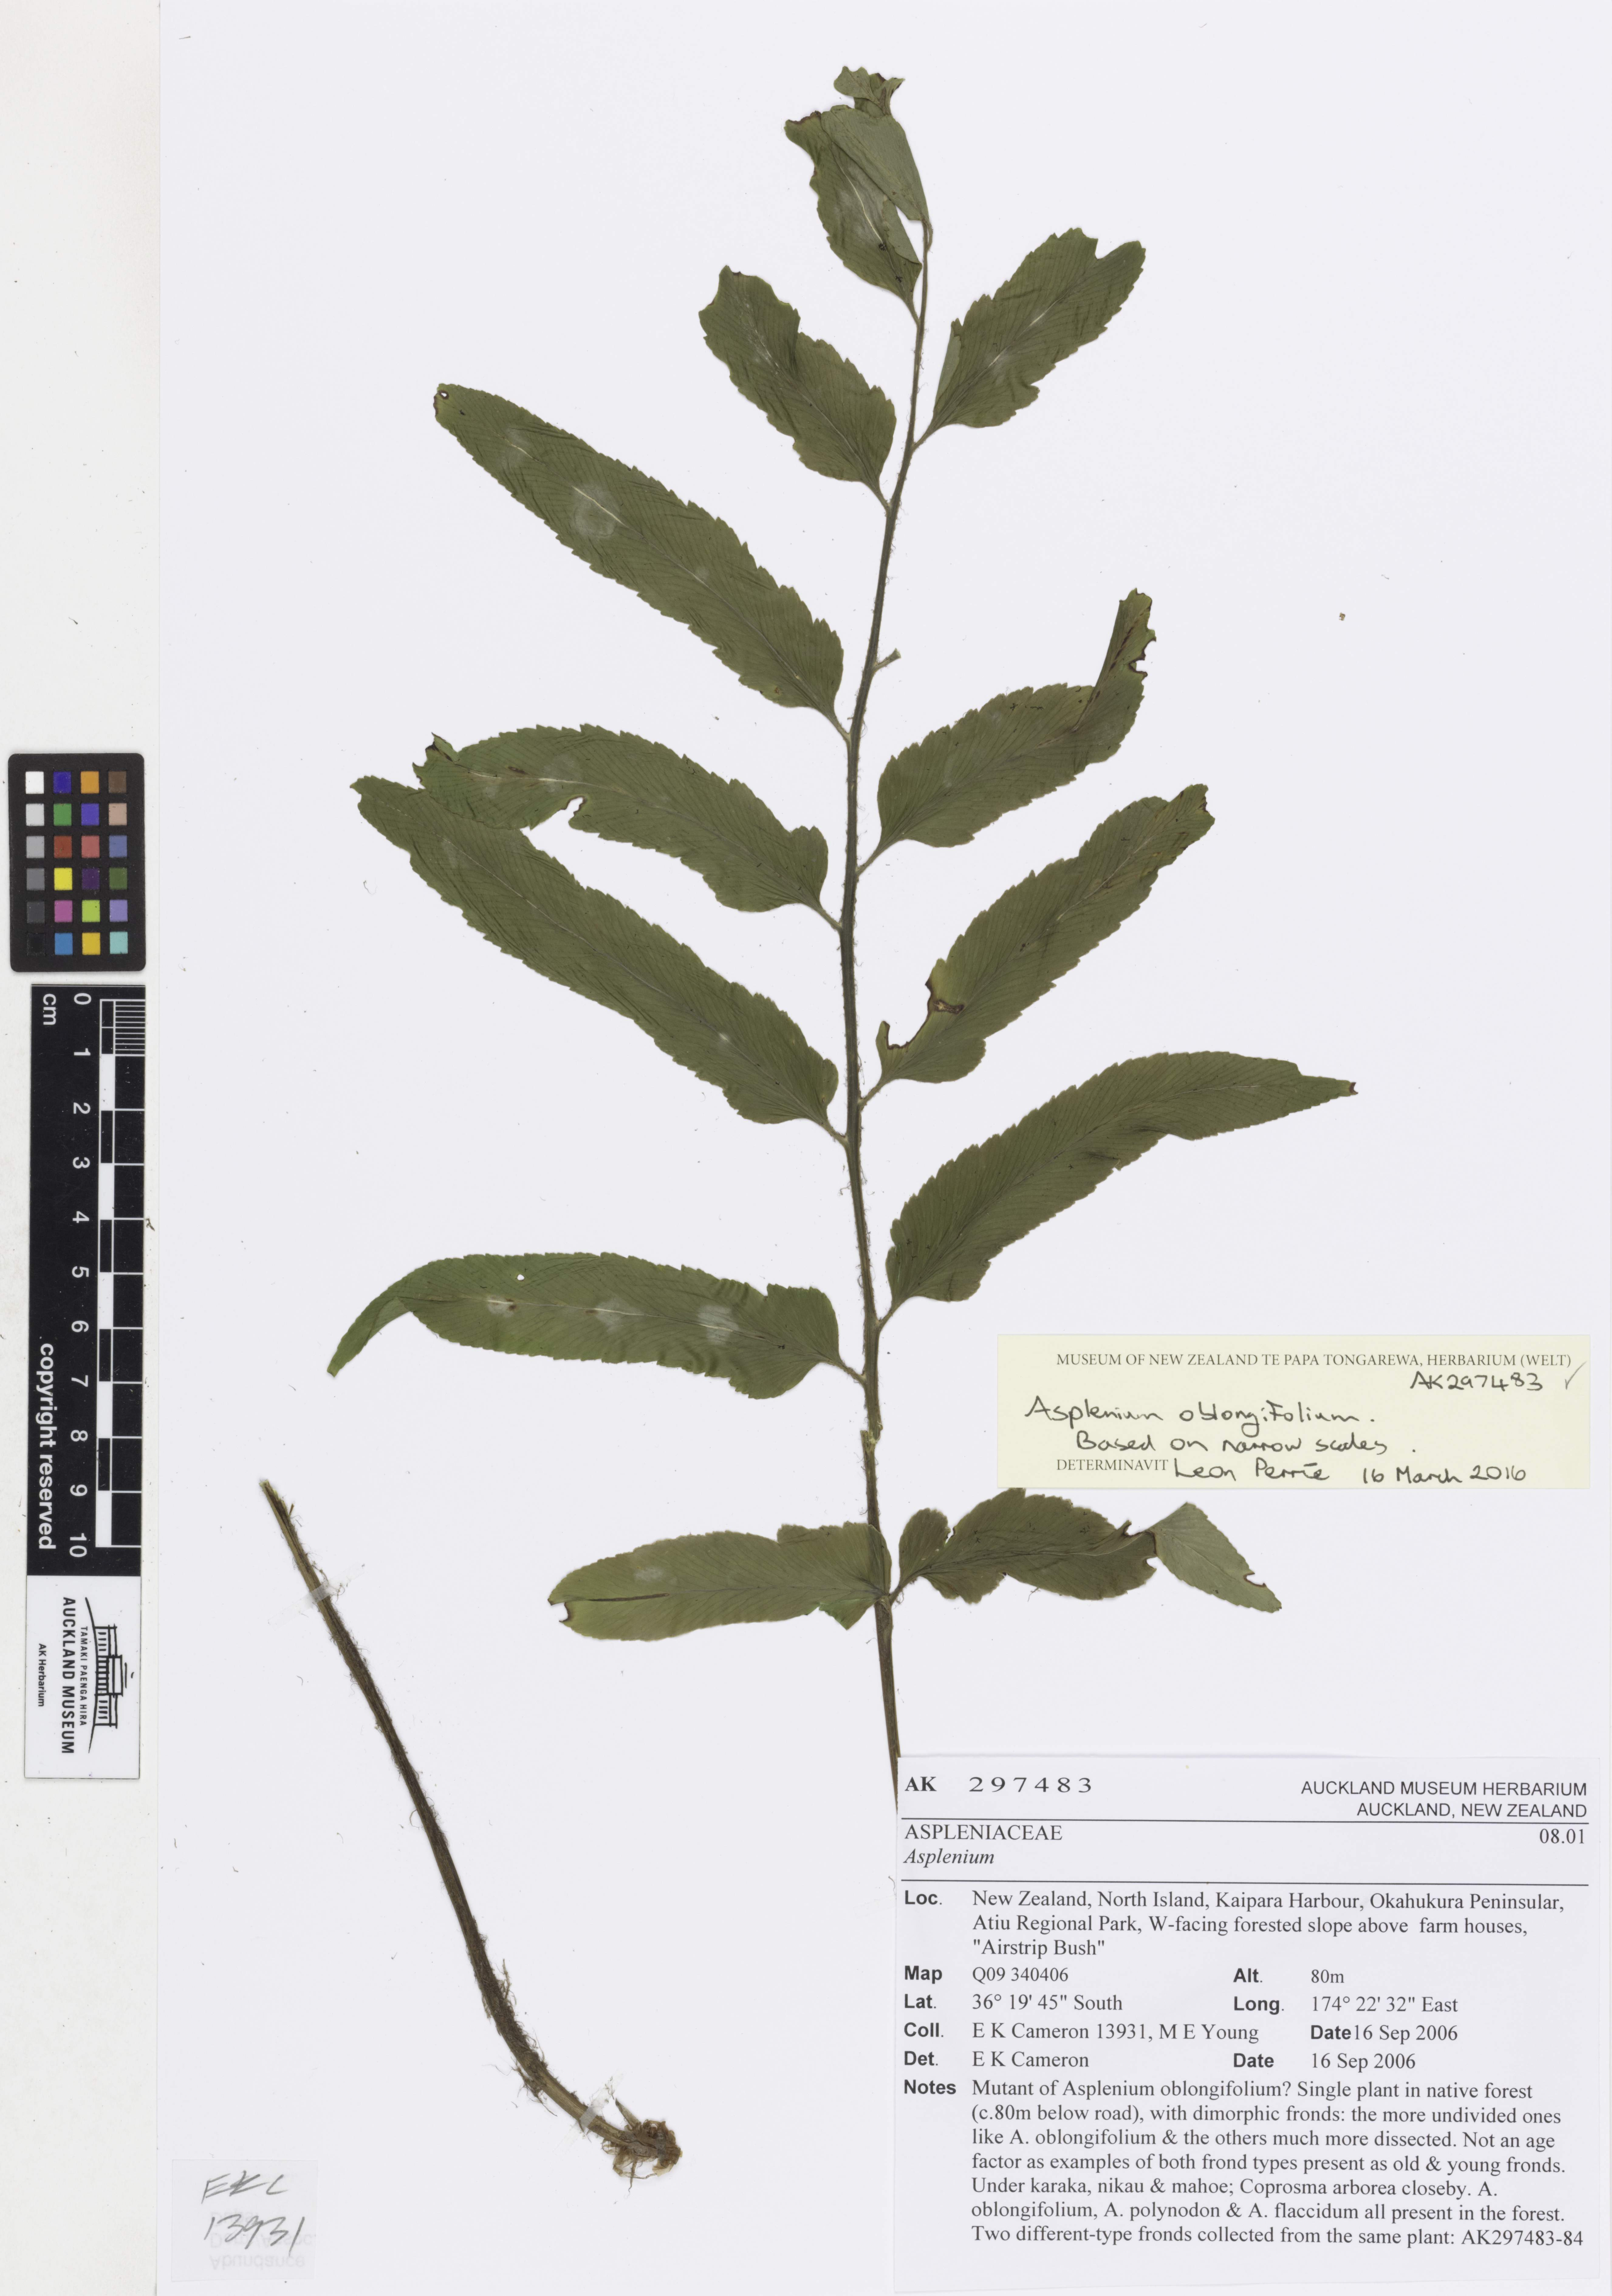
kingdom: Plantae
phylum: Tracheophyta
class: Polypodiopsida
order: Polypodiales
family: Aspleniaceae
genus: Asplenium
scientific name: Asplenium oblongifolium
